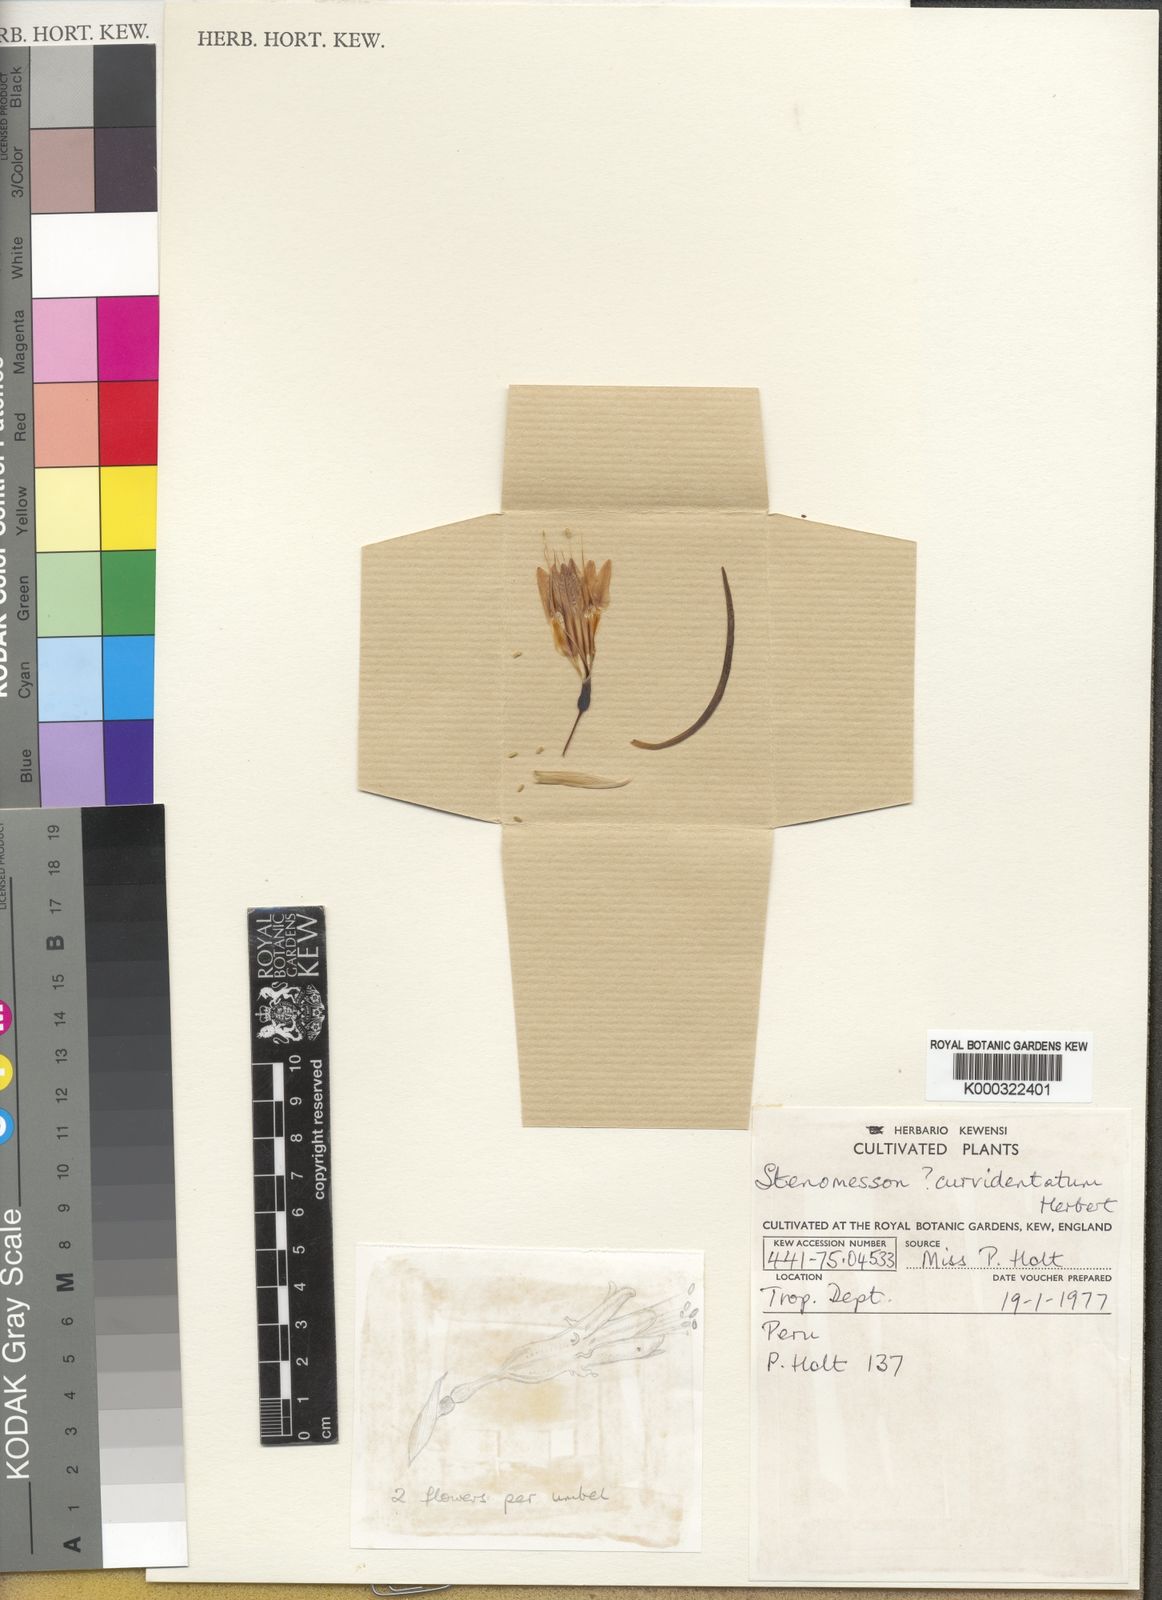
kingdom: Plantae
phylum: Tracheophyta
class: Liliopsida
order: Asparagales
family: Amaryllidaceae
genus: Stenomesson
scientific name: Stenomesson
